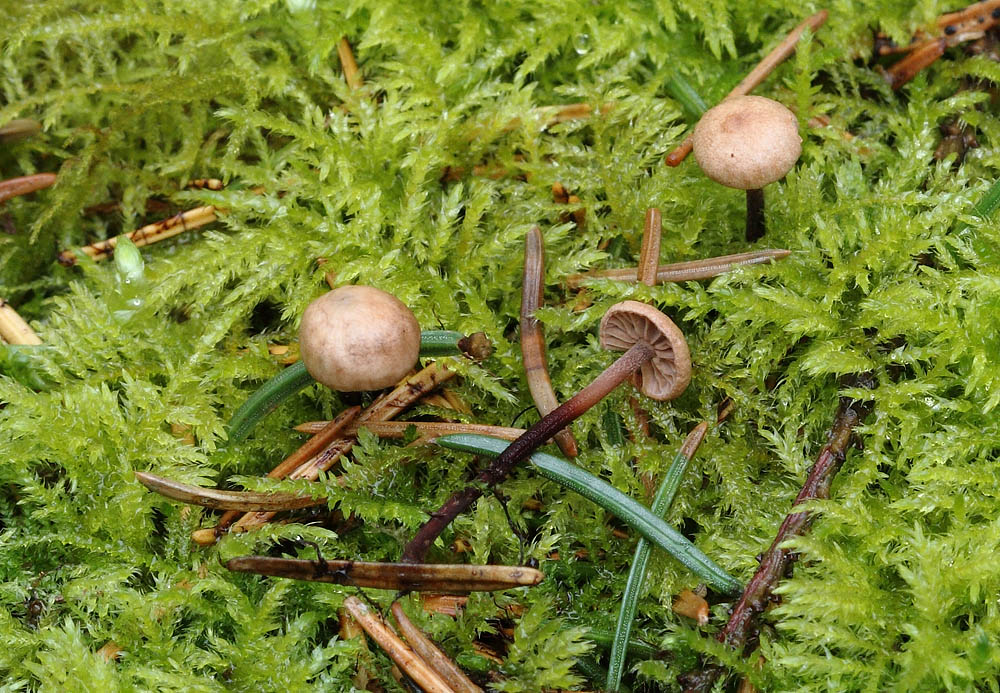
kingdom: Fungi
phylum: Basidiomycota
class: Agaricomycetes
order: Agaricales
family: Omphalotaceae
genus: Paragymnopus
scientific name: Paragymnopus perforans
